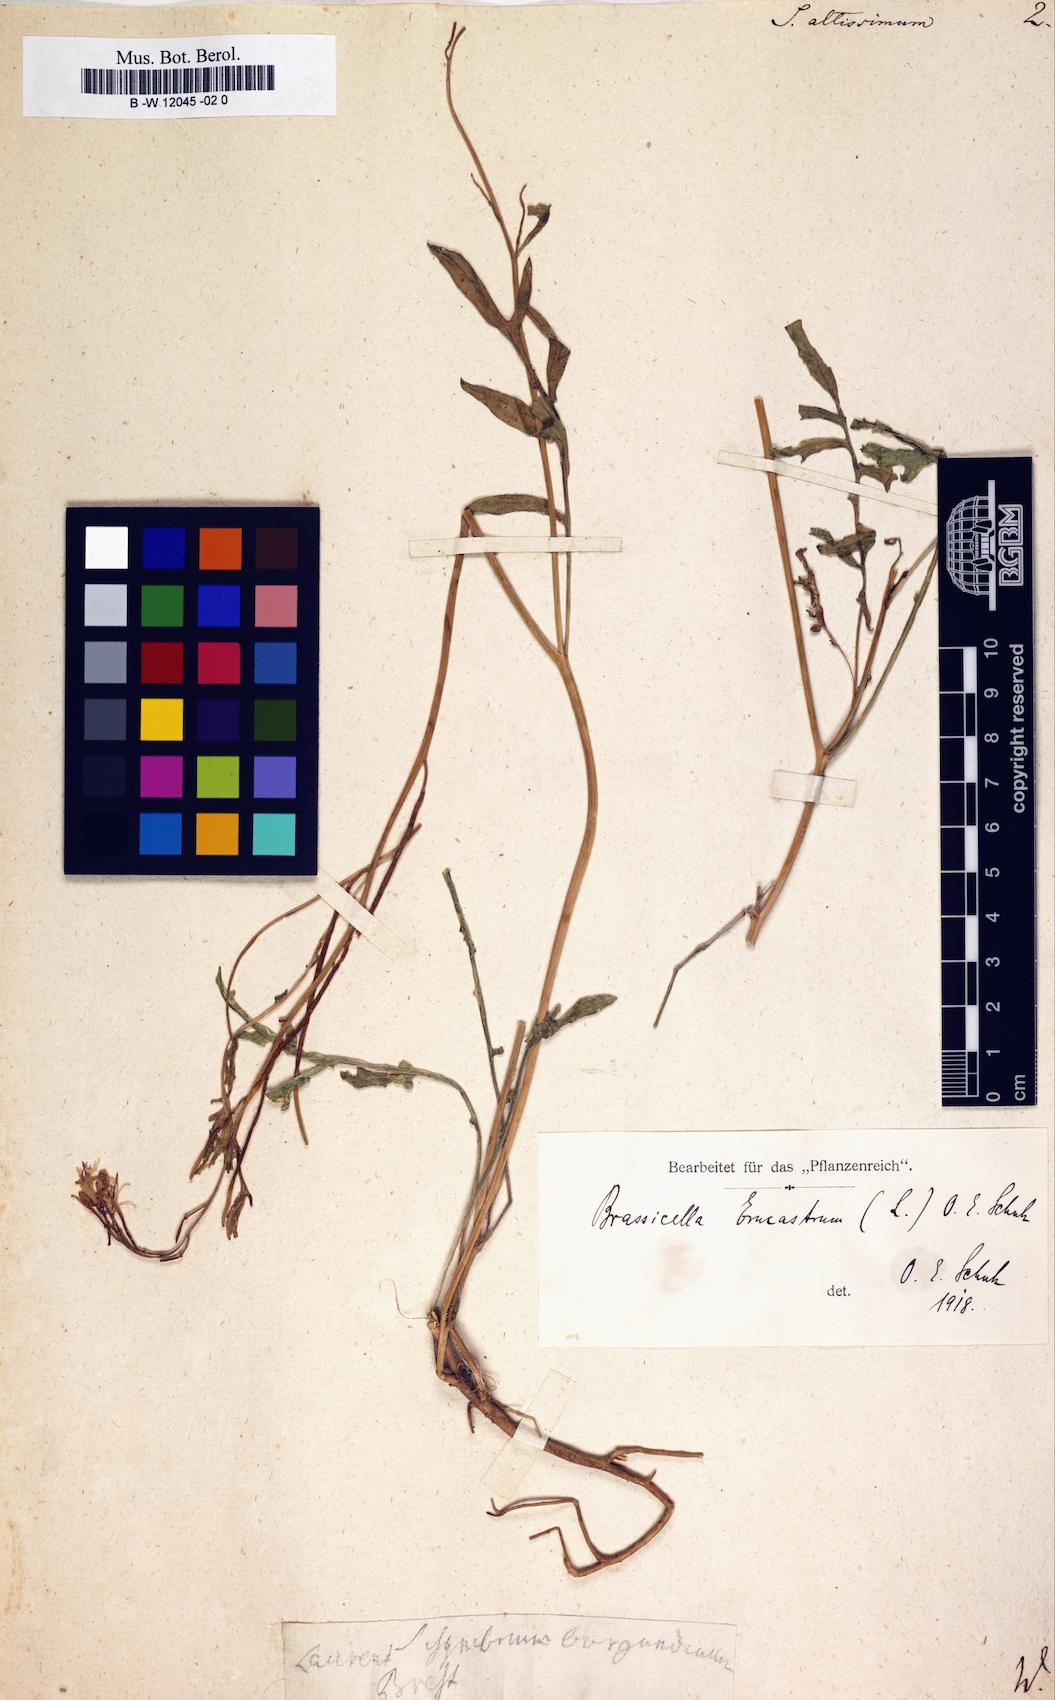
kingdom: Plantae
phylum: Tracheophyta
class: Magnoliopsida
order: Brassicales
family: Brassicaceae
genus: Sisymbrium
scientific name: Sisymbrium altissimum
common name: Tall rocket
